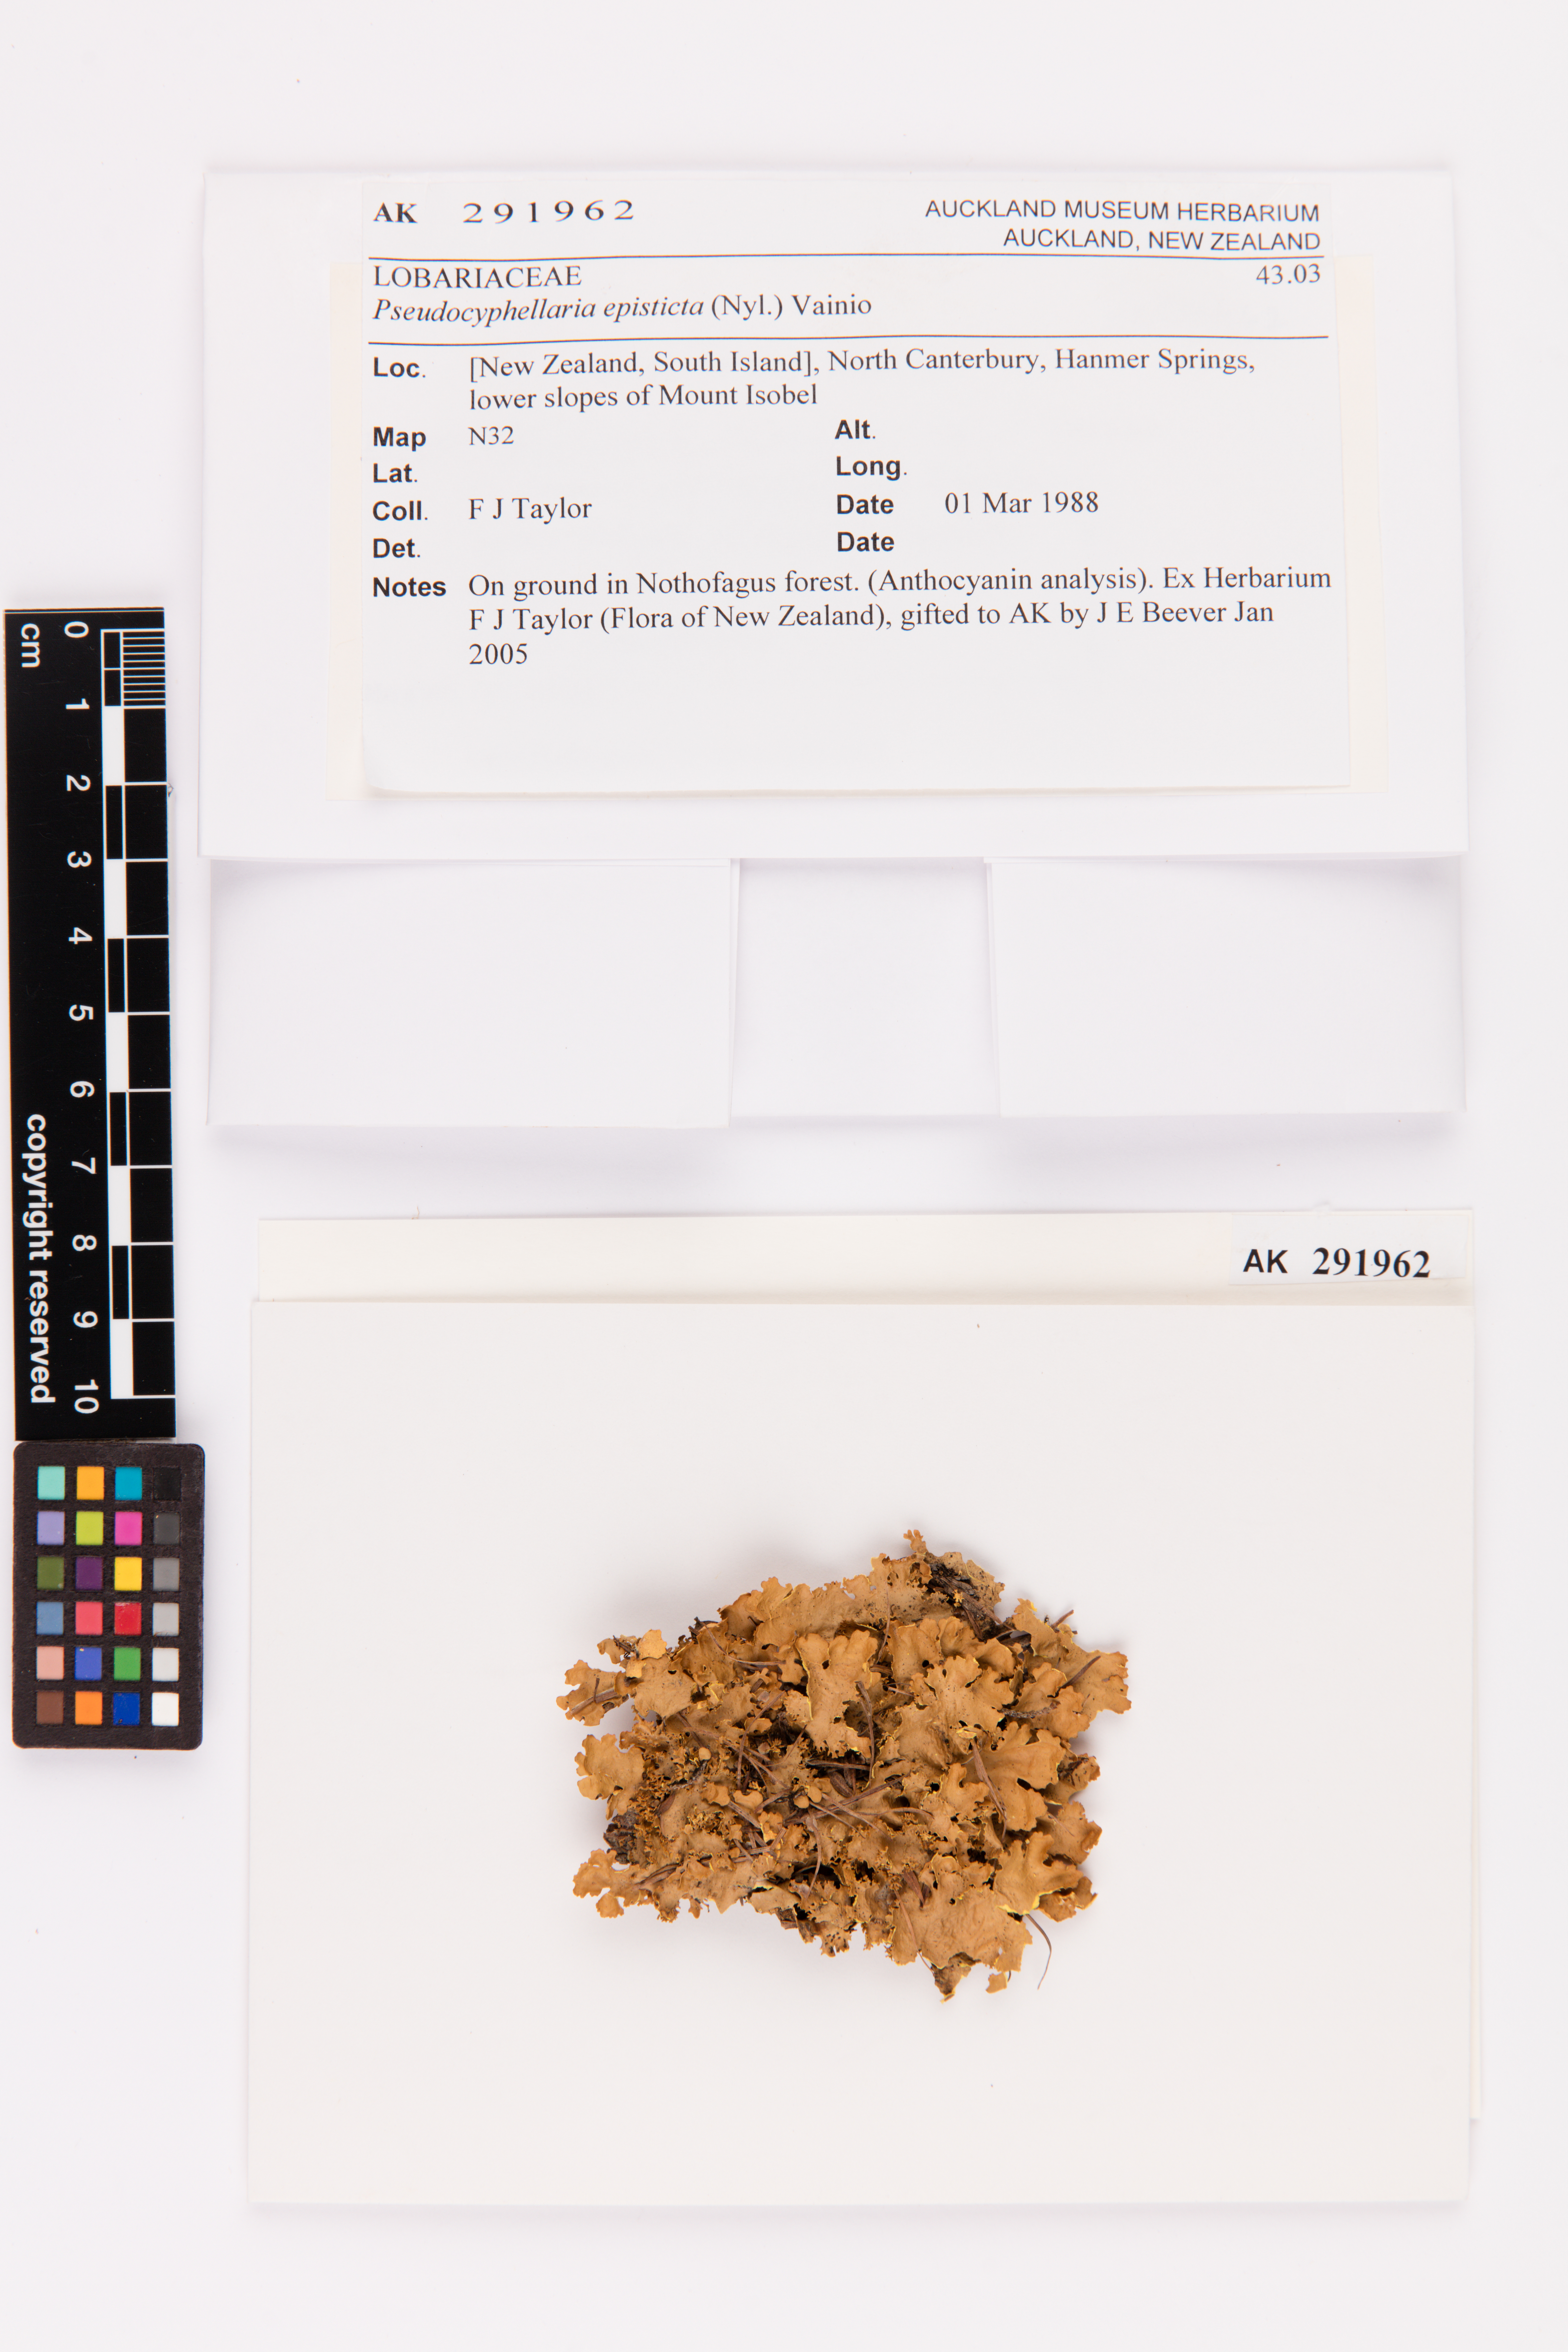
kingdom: Fungi
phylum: Ascomycota
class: Lecanoromycetes
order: Peltigerales
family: Lobariaceae
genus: Pseudocyphellaria
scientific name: Pseudocyphellaria episticta
